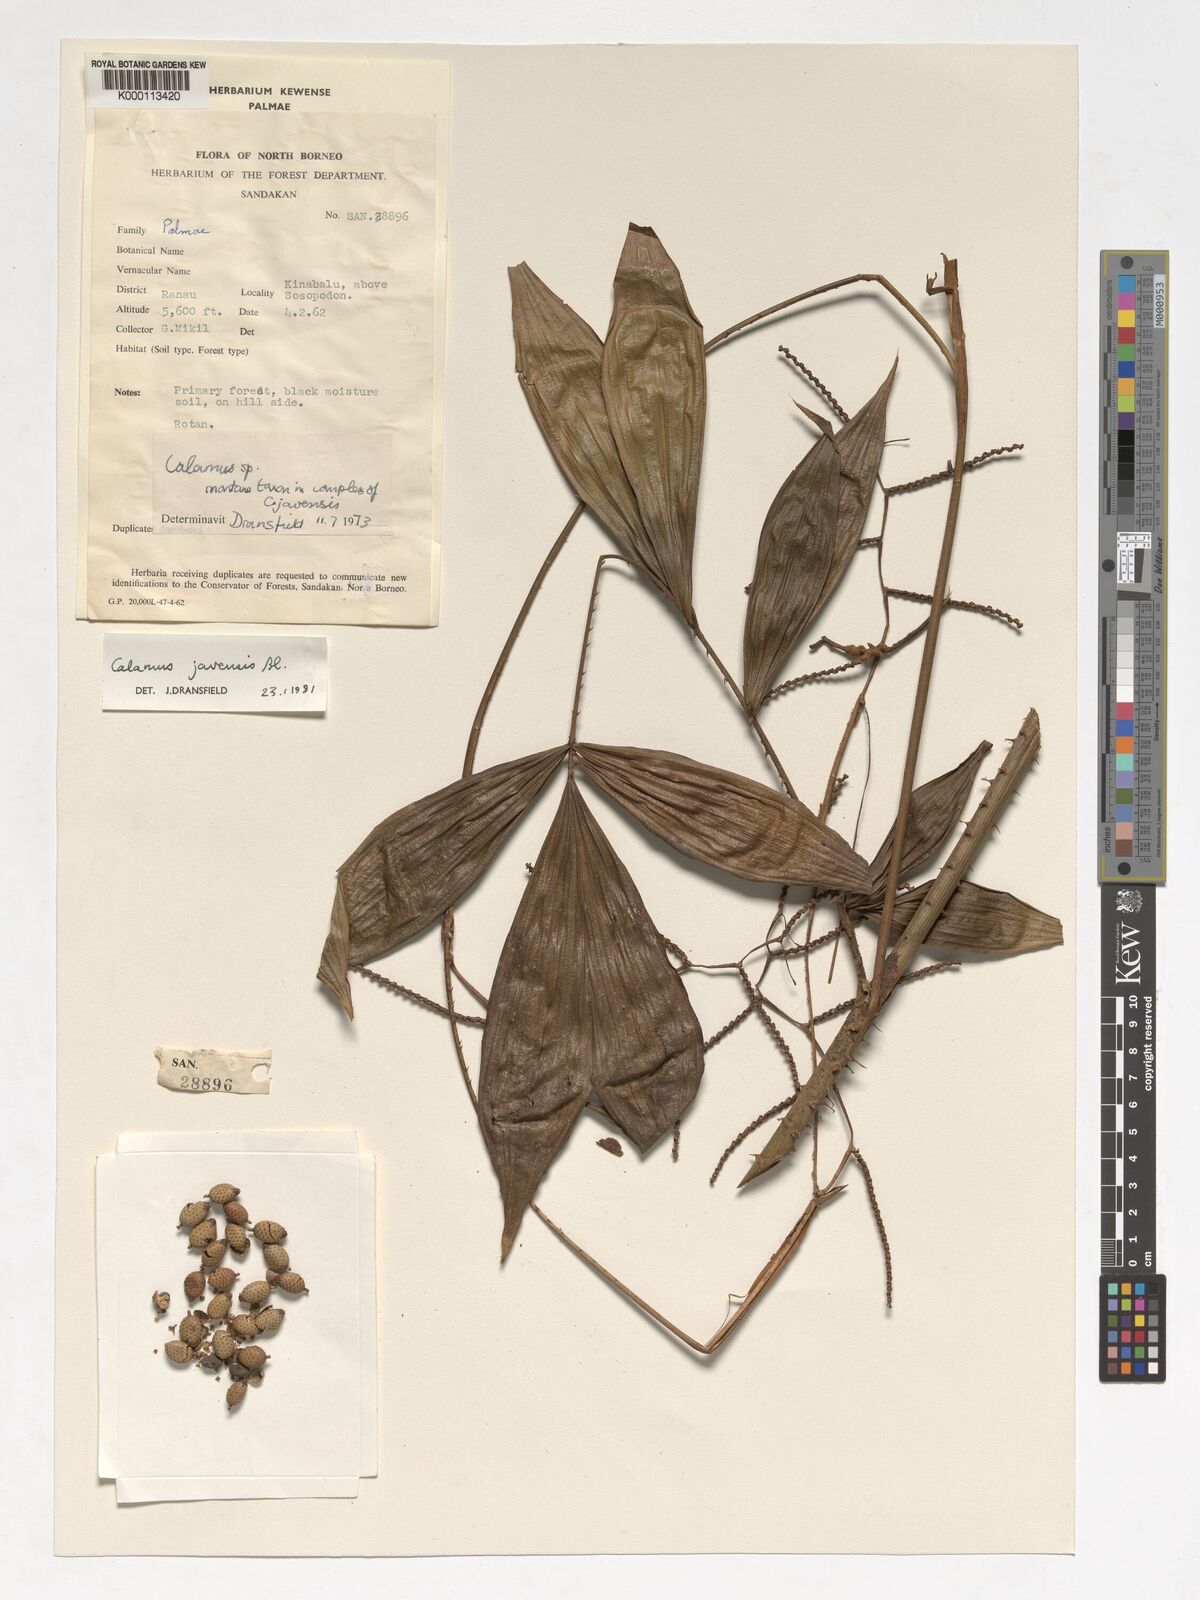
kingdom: Plantae
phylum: Tracheophyta
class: Liliopsida
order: Arecales
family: Arecaceae
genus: Calamus
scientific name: Calamus javensis
